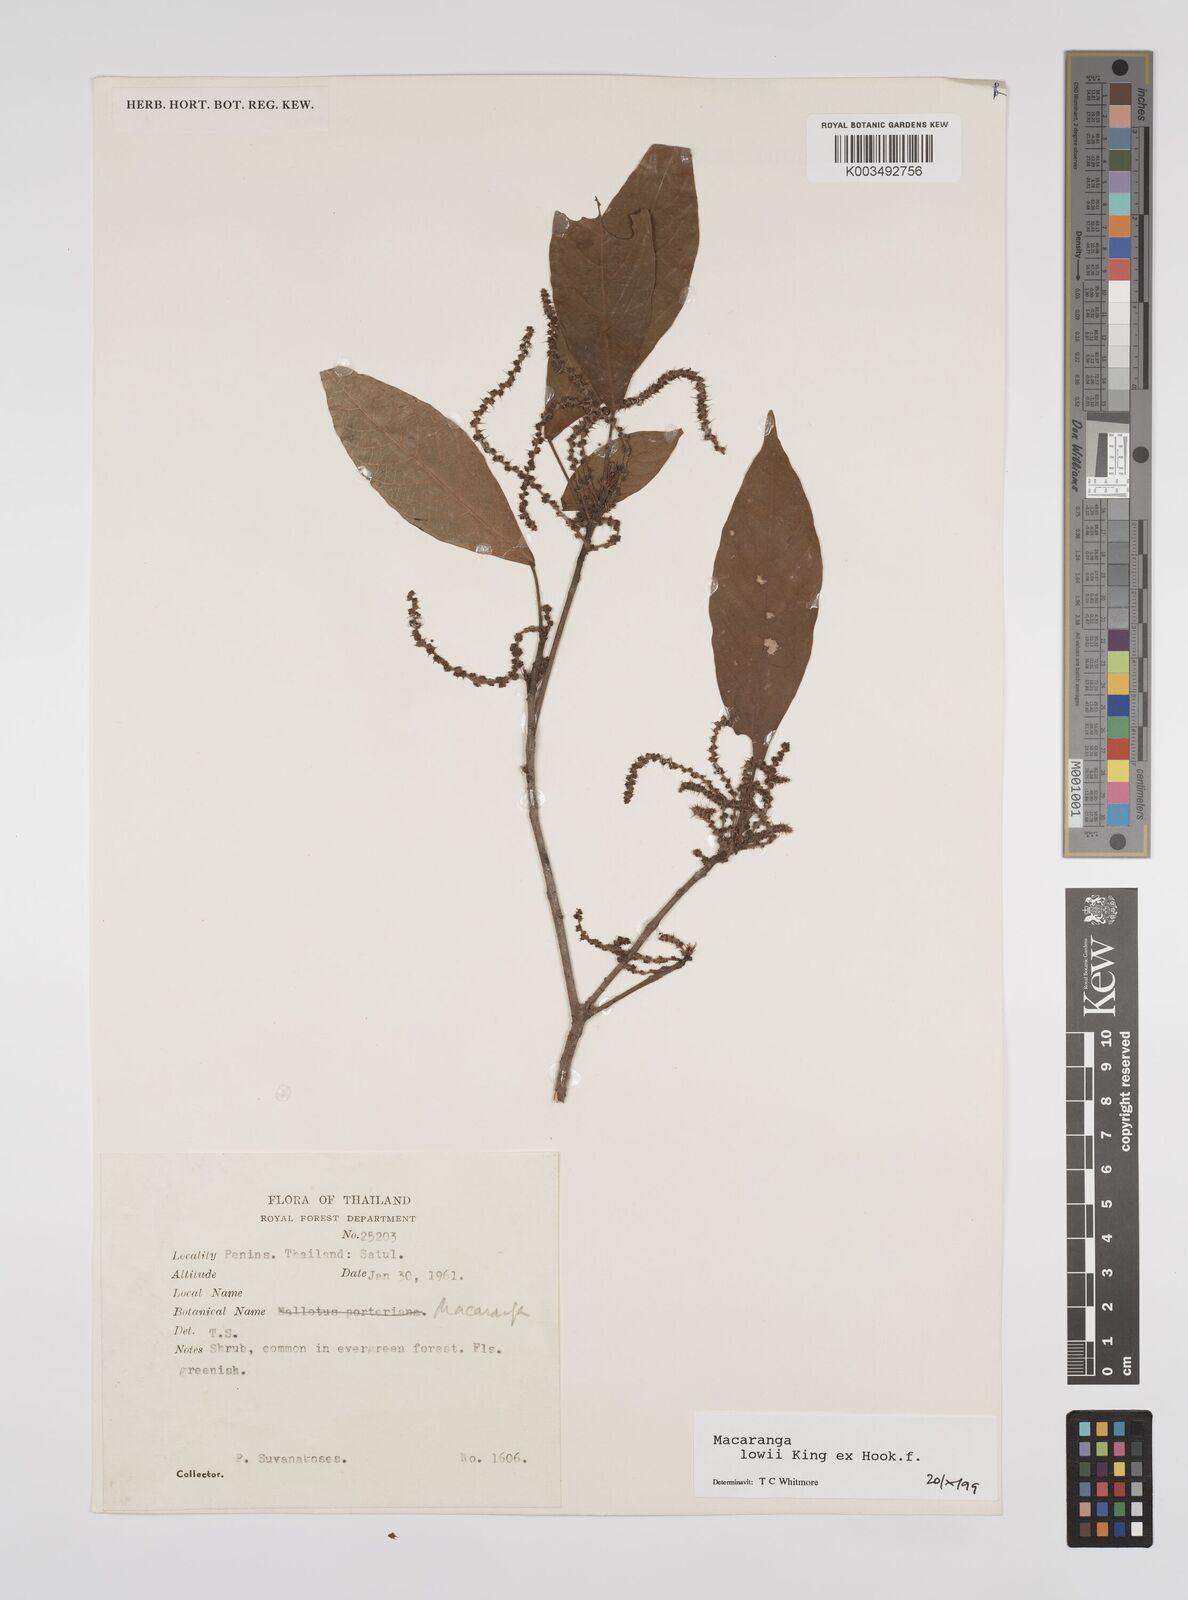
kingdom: Plantae
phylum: Tracheophyta
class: Magnoliopsida
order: Malpighiales
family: Euphorbiaceae
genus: Macaranga
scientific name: Macaranga lowii
